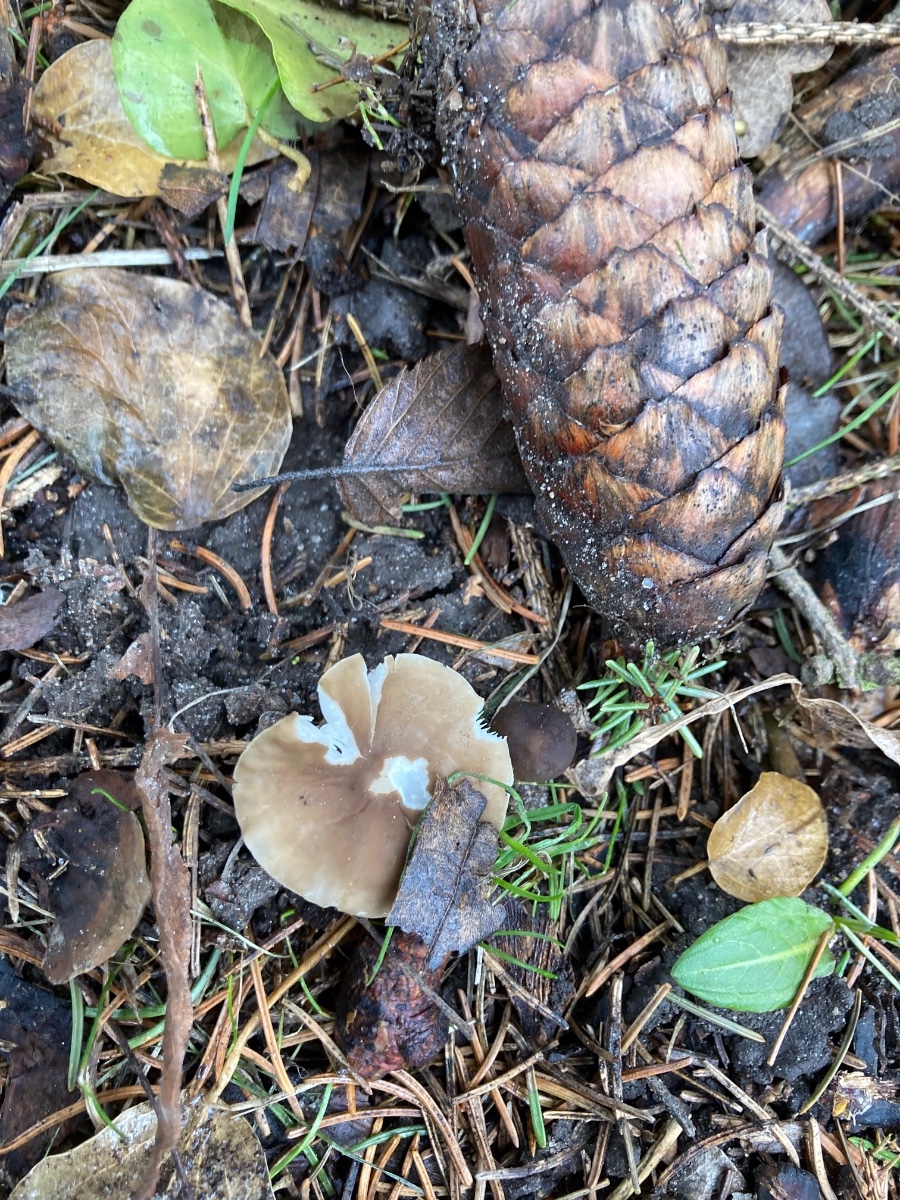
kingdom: Fungi
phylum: Basidiomycota
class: Agaricomycetes
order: Agaricales
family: Physalacriaceae
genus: Strobilurus
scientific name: Strobilurus esculentus
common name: gran-koglehat
